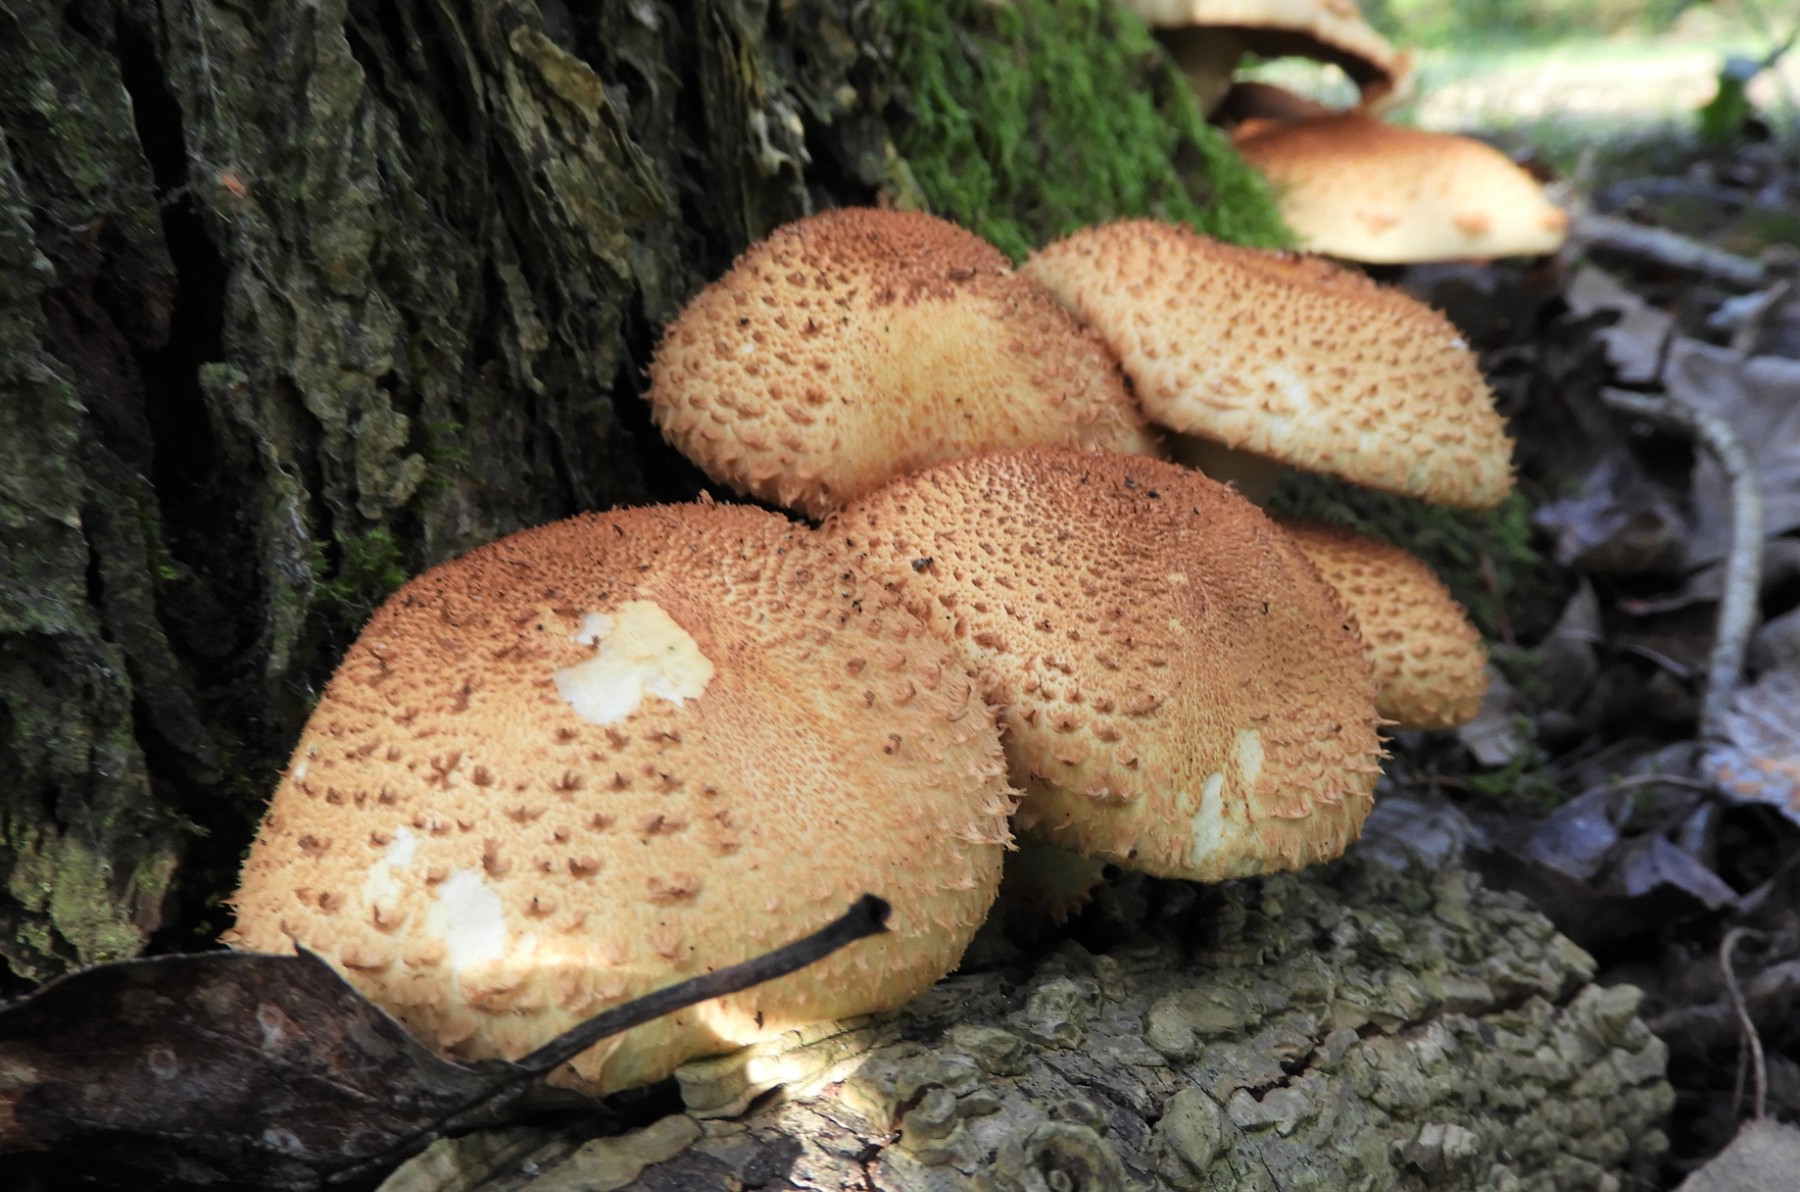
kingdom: Fungi
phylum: Basidiomycota
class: Agaricomycetes
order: Agaricales
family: Strophariaceae
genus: Pholiota
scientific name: Pholiota squarrosa
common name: krumskællet skælhat
